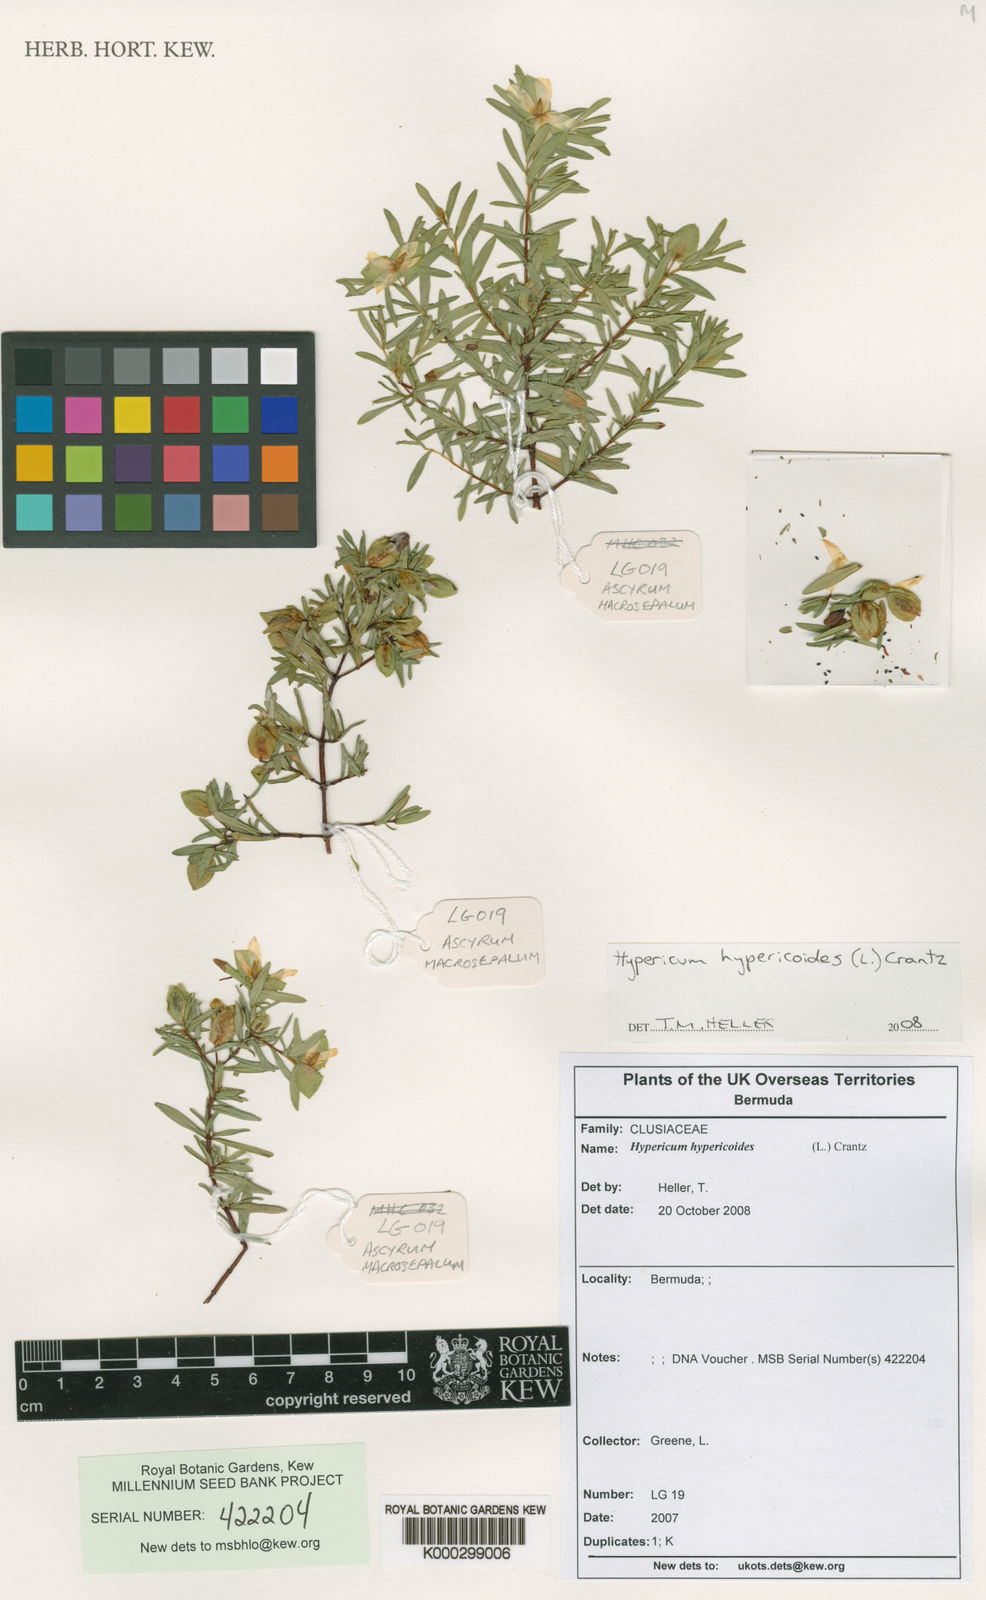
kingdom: Plantae
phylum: Tracheophyta
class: Magnoliopsida
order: Malpighiales
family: Hypericaceae
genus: Hypericum
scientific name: Hypericum hypericoides
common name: St. andrew's cross
